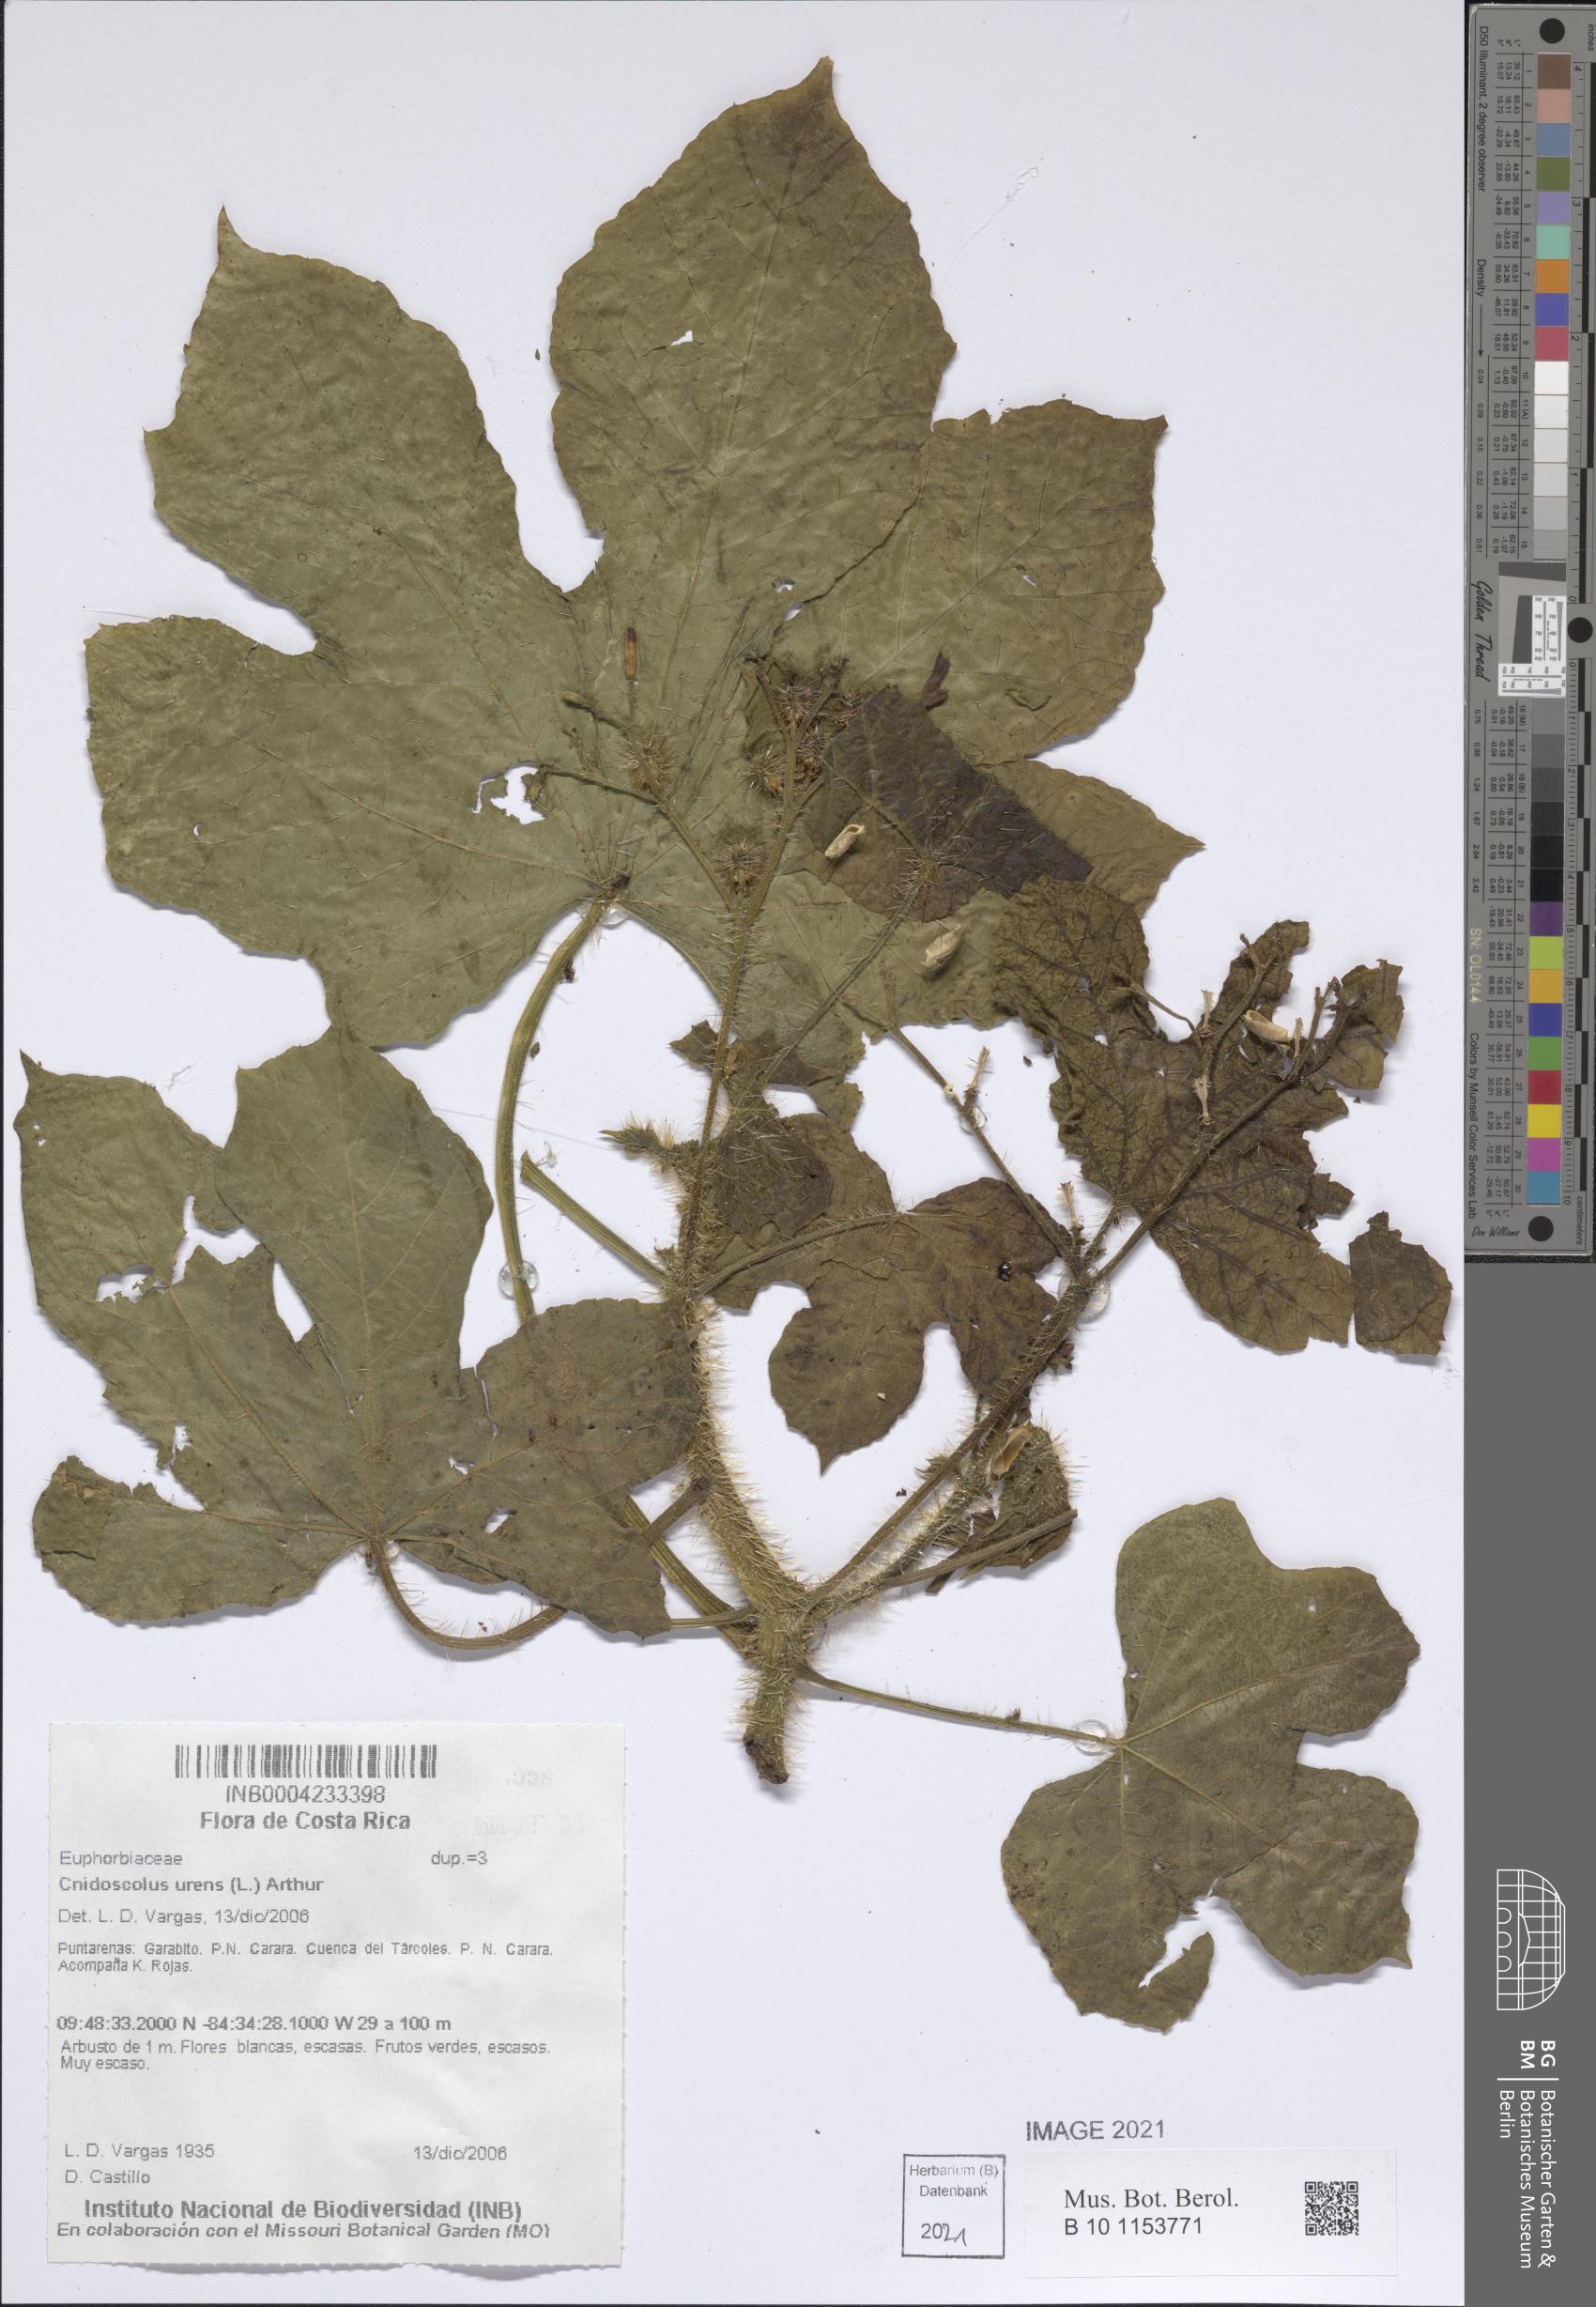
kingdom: Plantae
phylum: Tracheophyta
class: Magnoliopsida
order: Malpighiales
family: Euphorbiaceae
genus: Cnidoscolus
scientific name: Cnidoscolus urens
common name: Bull-nettle
